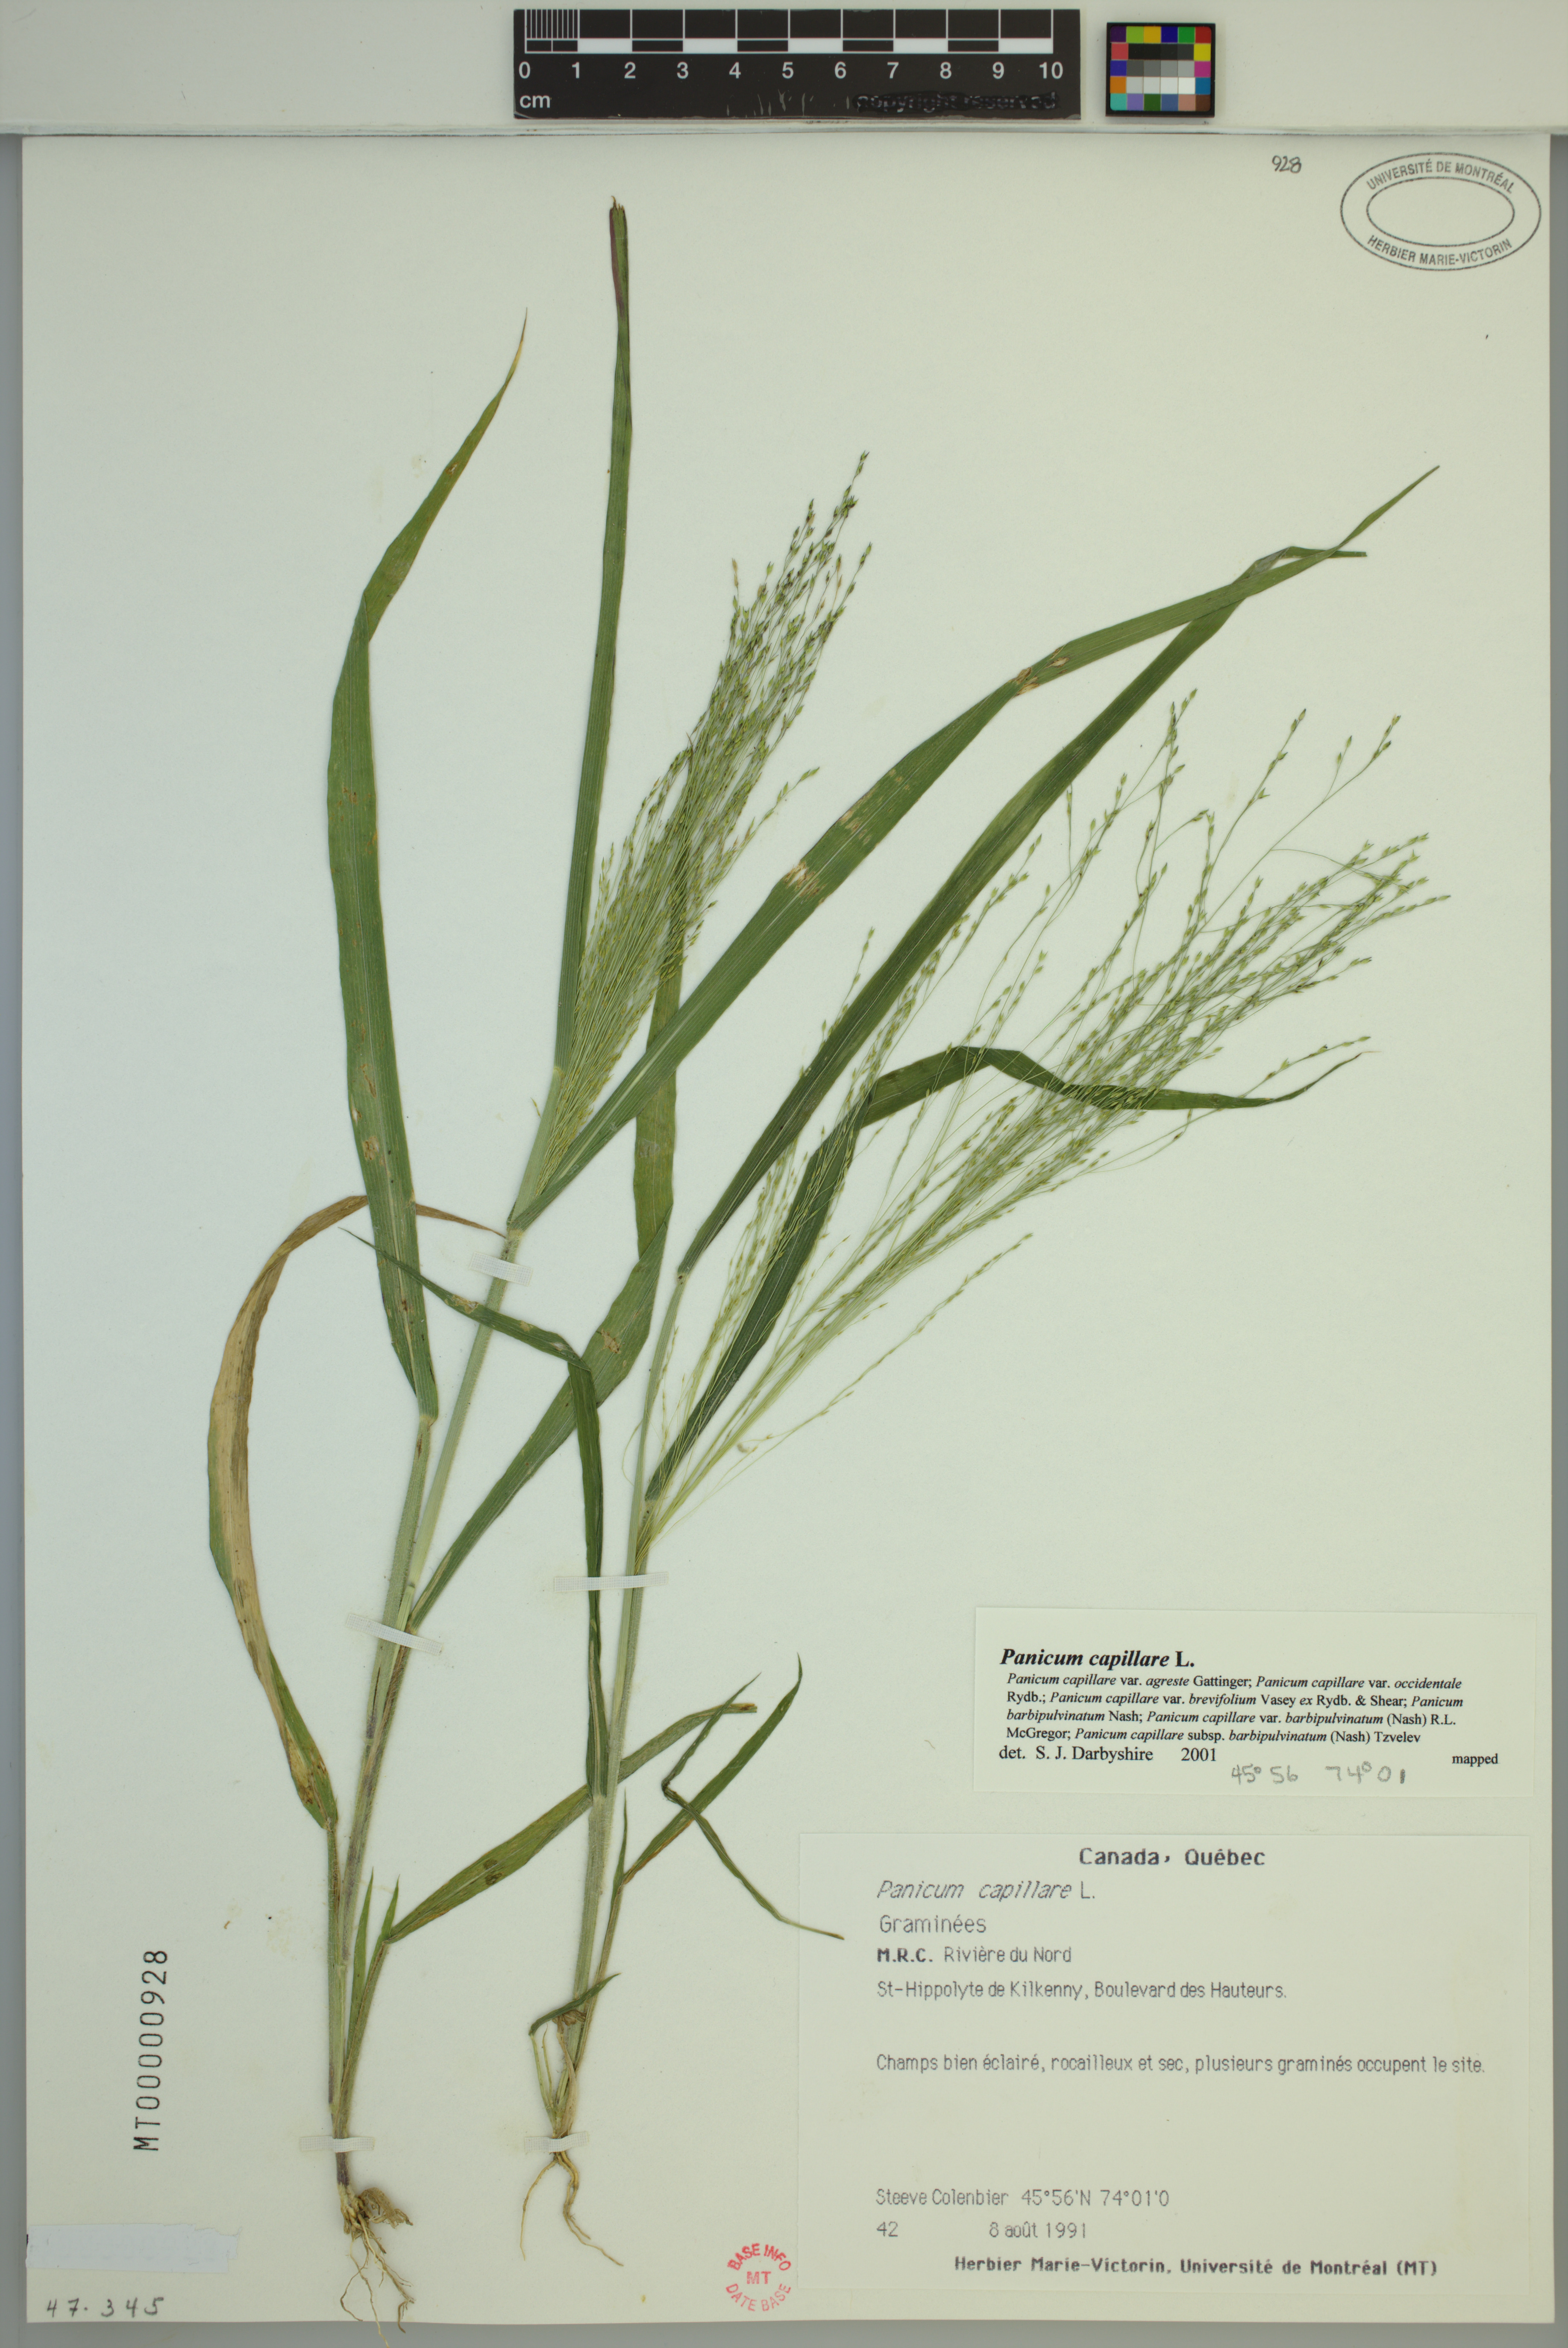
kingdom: Plantae
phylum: Tracheophyta
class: Liliopsida
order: Poales
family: Poaceae
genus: Panicum
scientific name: Panicum capillare
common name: Witch-grass
